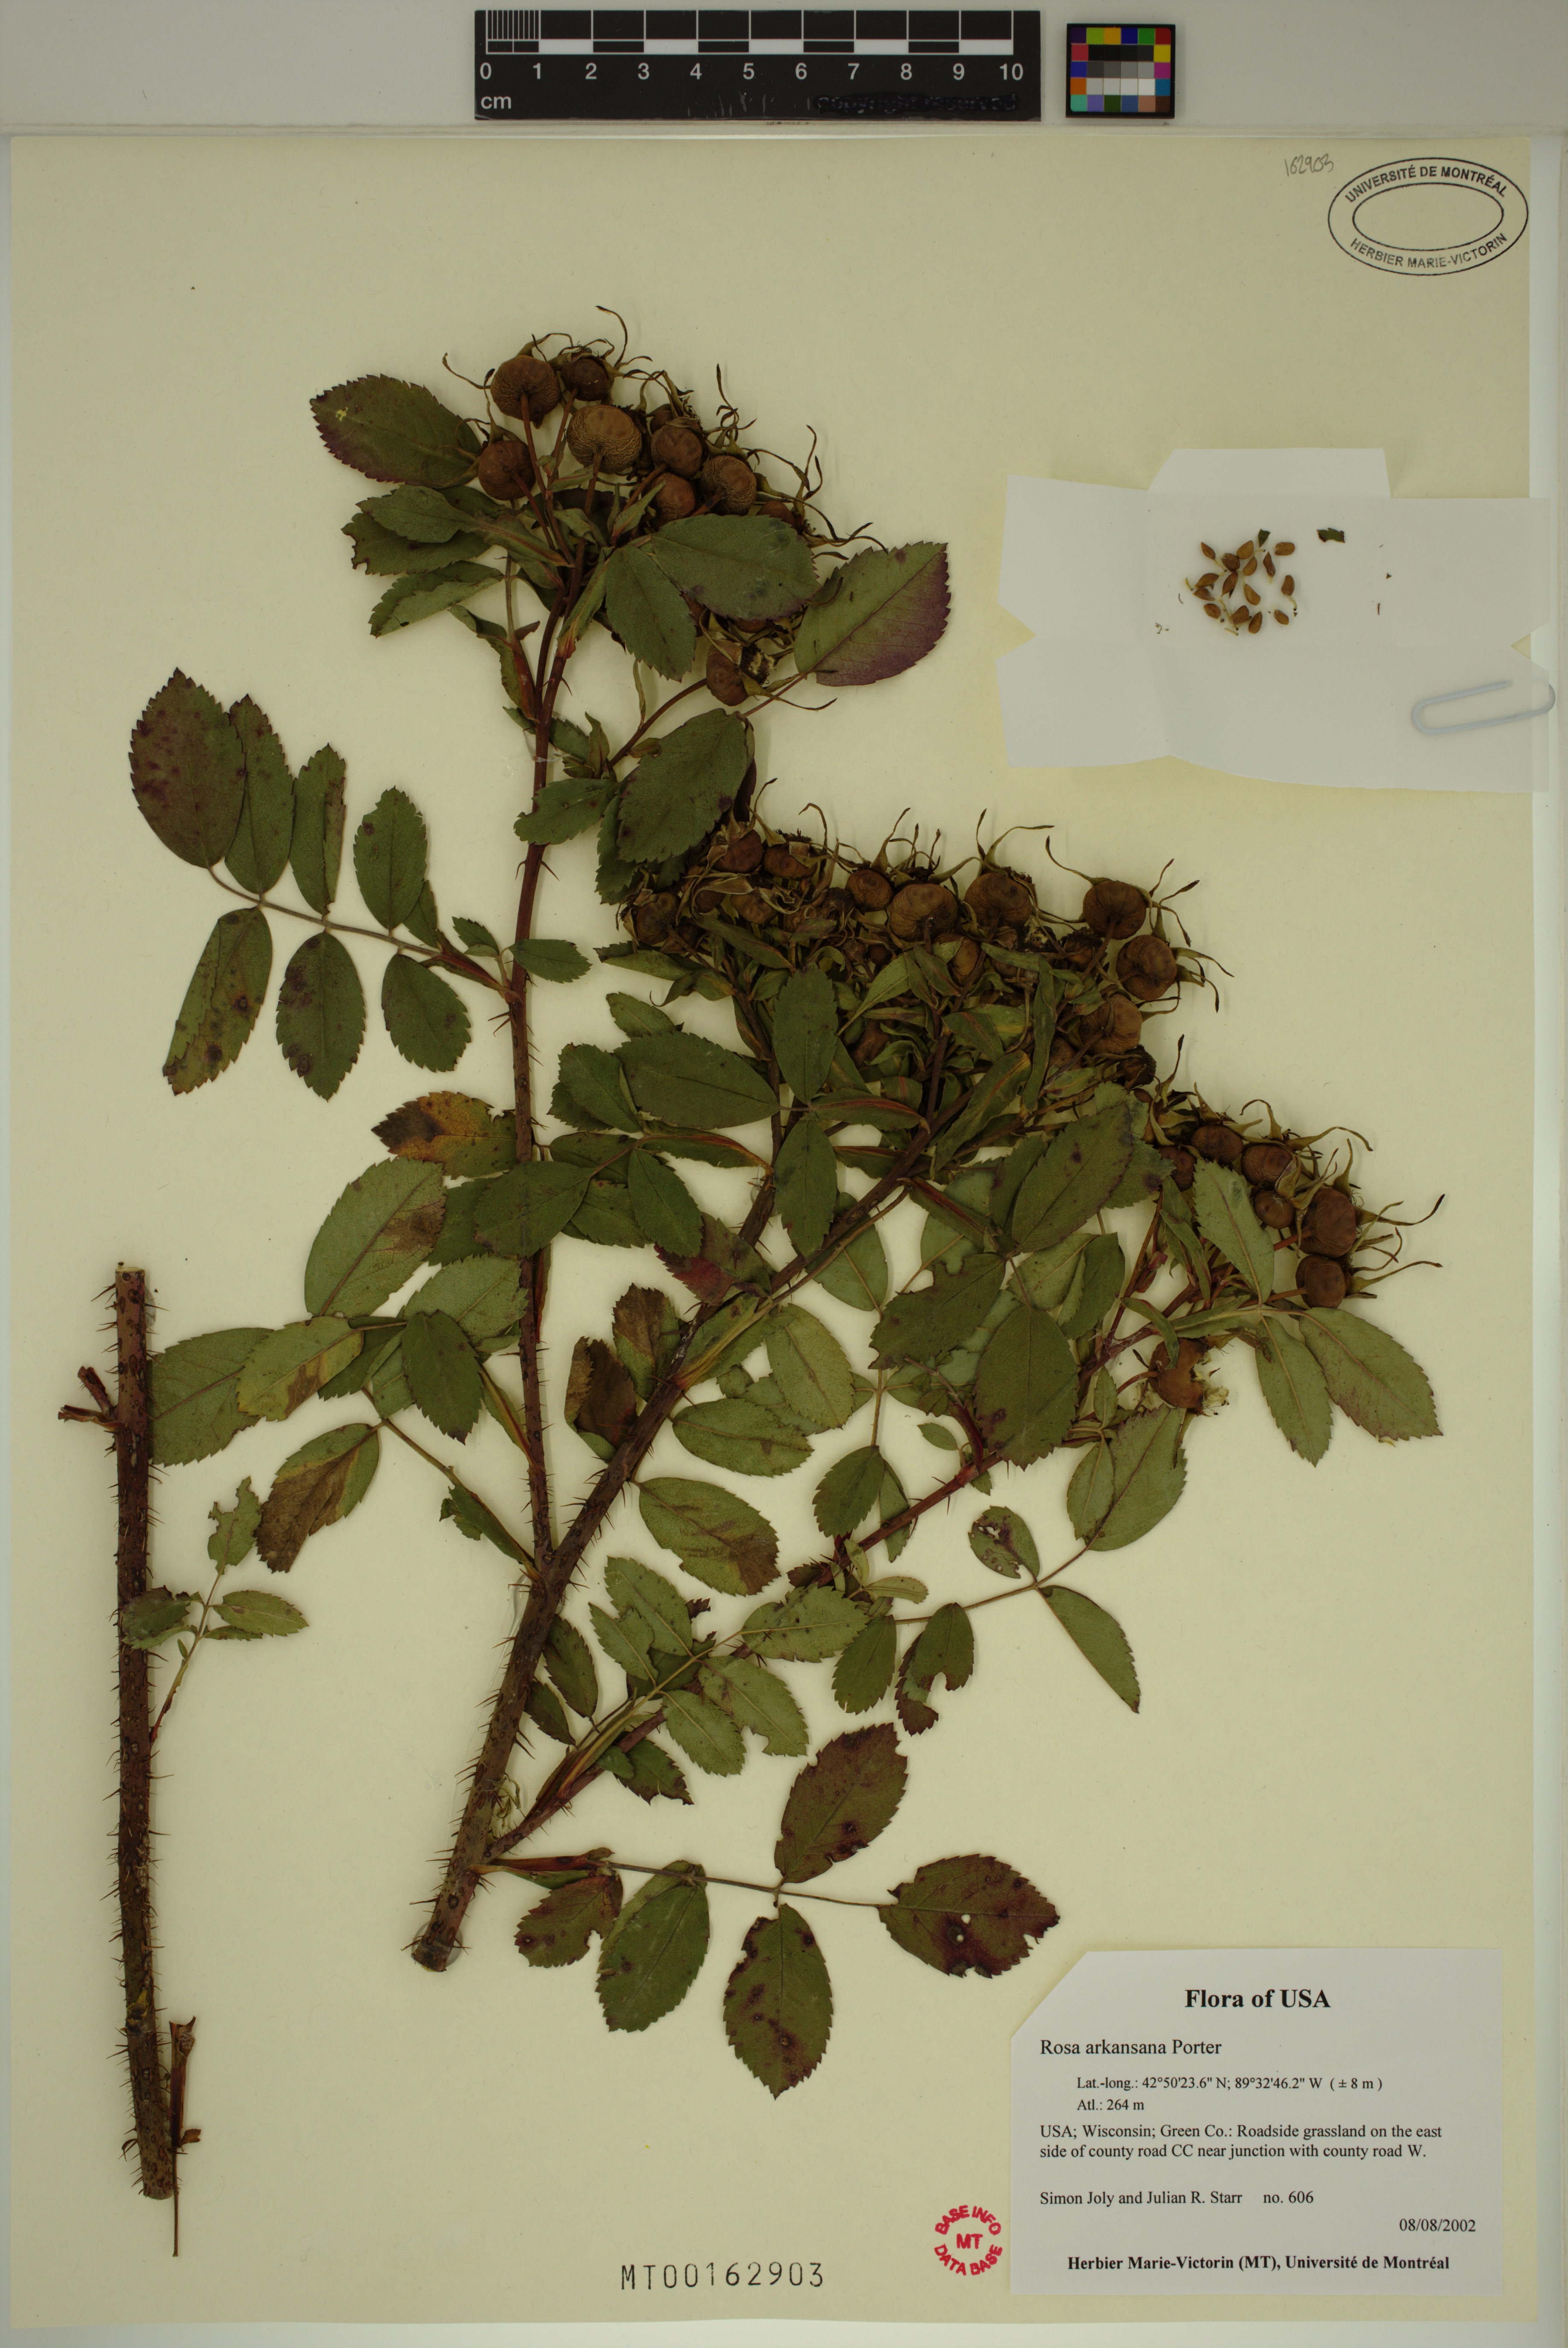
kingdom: Plantae
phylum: Tracheophyta
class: Magnoliopsida
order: Rosales
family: Rosaceae
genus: Rosa
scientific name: Rosa arkansana
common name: Prairie rose
